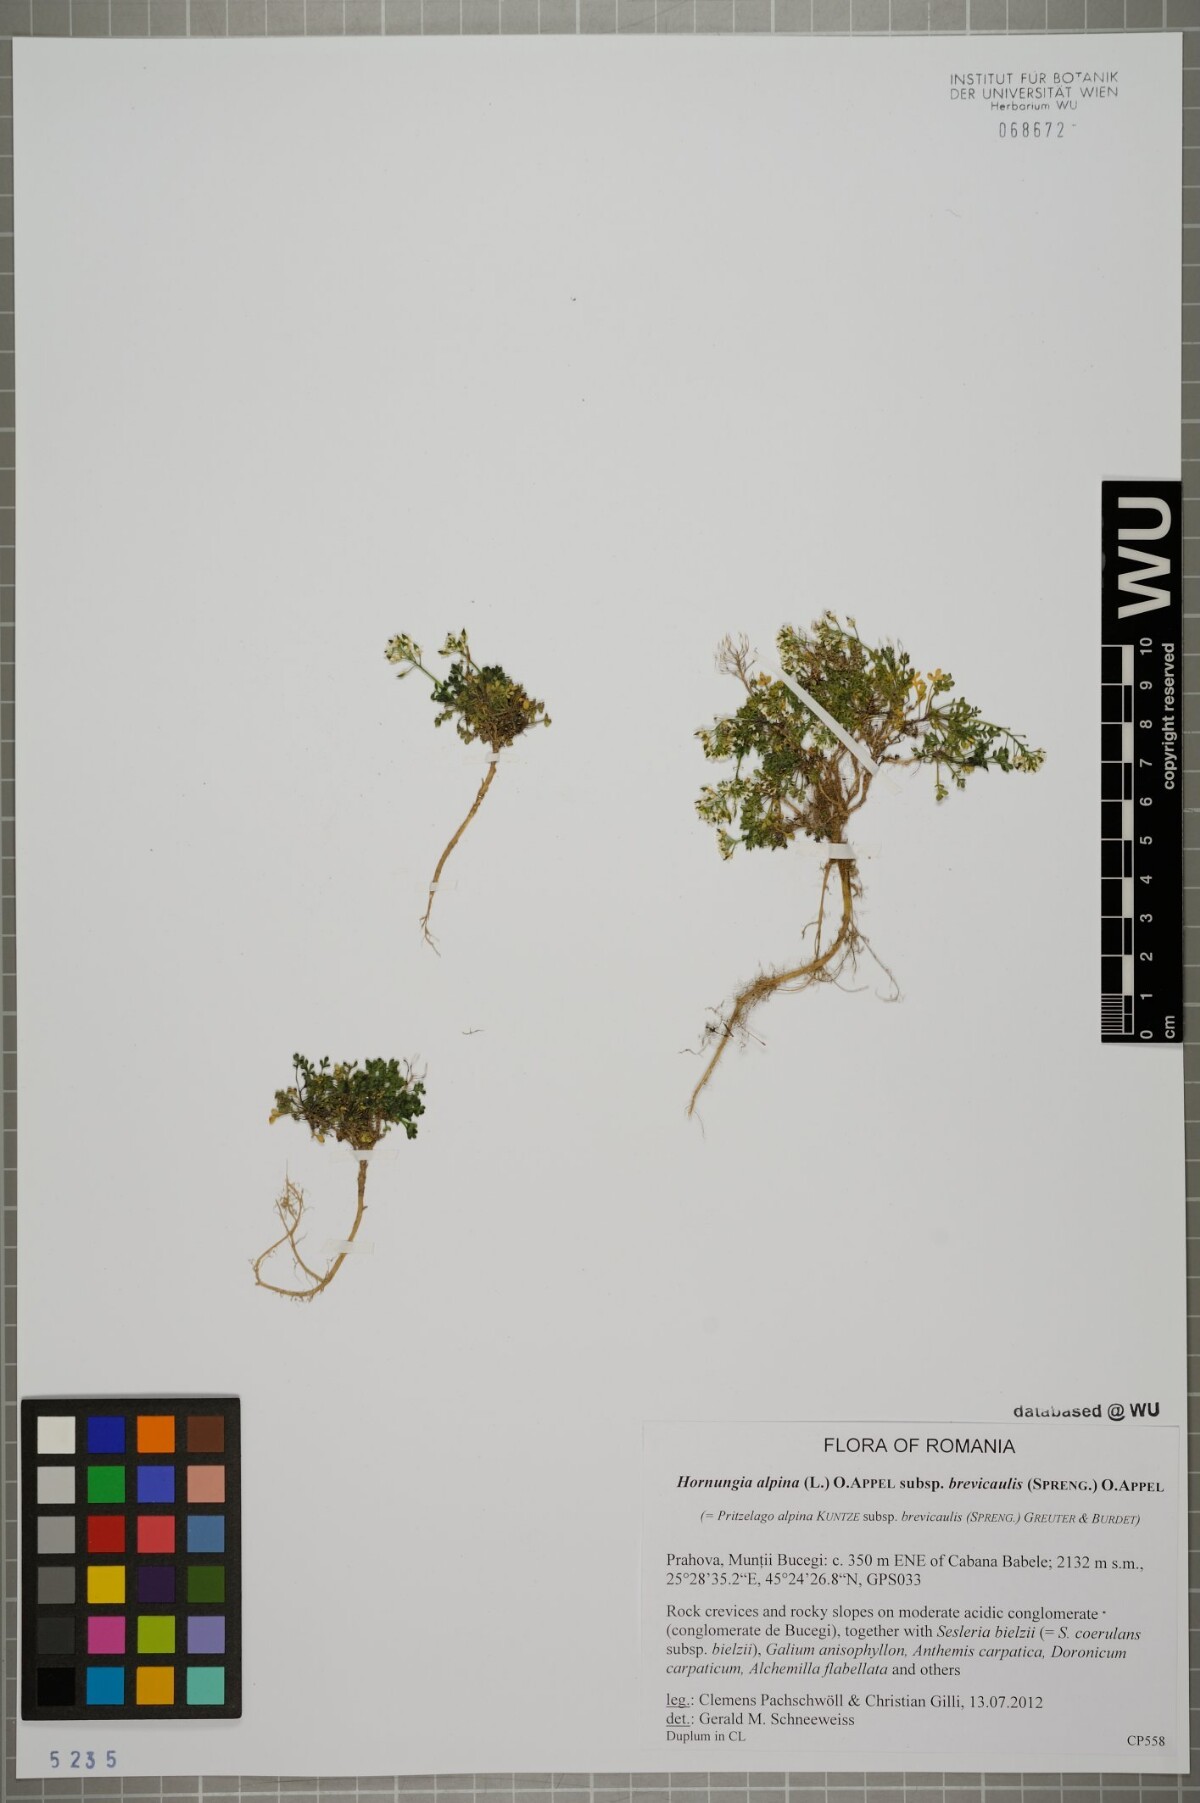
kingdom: Plantae
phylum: Tracheophyta
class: Magnoliopsida
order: Brassicales
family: Brassicaceae
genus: Hornungia
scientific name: Hornungia alpina
